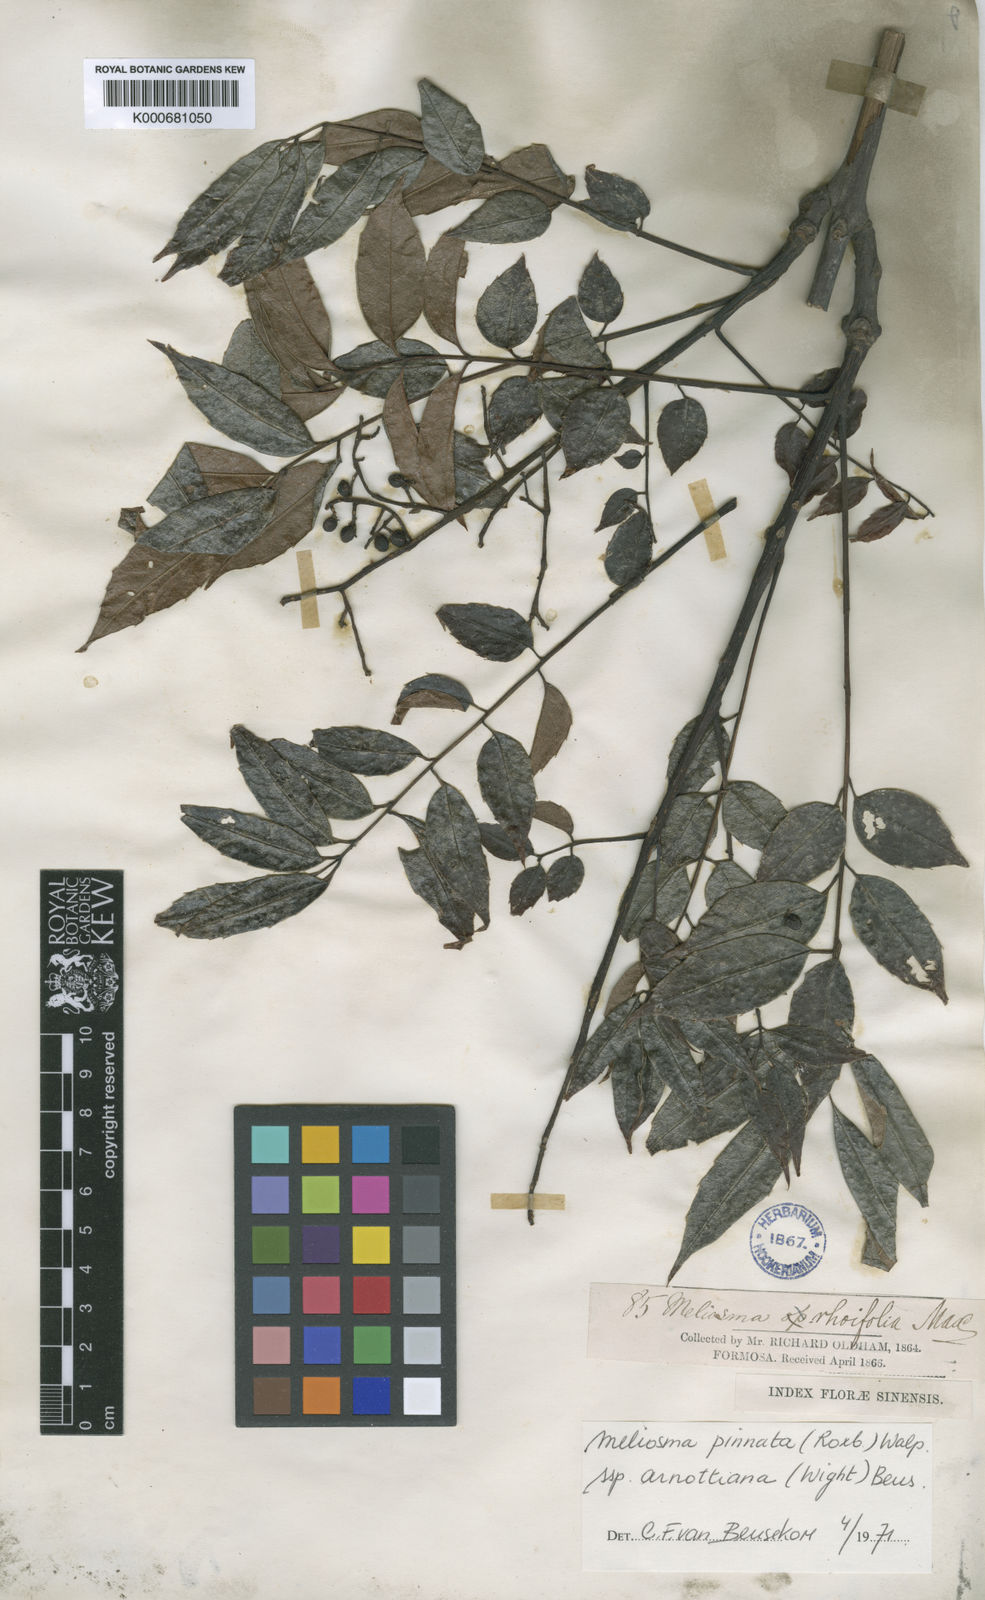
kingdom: Plantae
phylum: Tracheophyta
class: Magnoliopsida
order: Proteales
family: Sabiaceae
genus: Meliosma
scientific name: Meliosma pinnata
